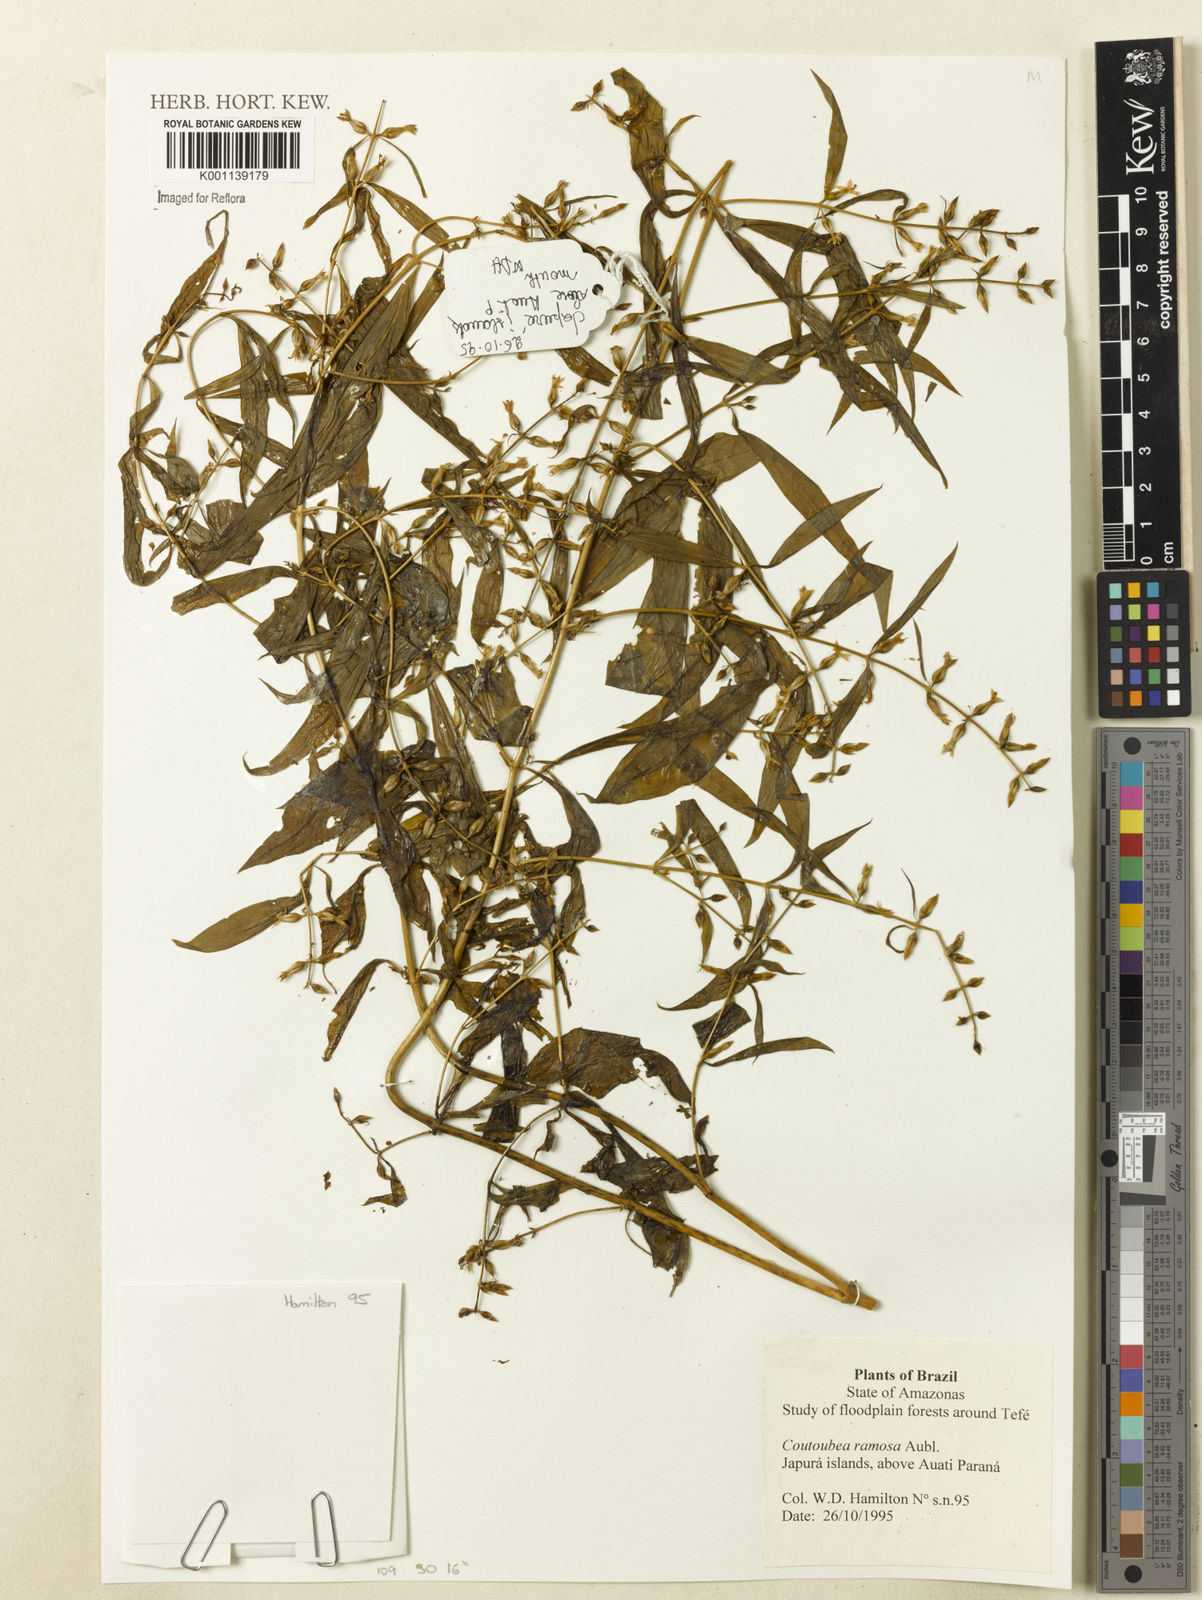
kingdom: Plantae
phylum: Tracheophyta
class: Magnoliopsida
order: Gentianales
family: Gentianaceae
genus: Coutoubea
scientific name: Coutoubea ramosa
